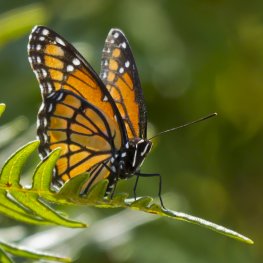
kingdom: Animalia
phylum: Arthropoda
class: Insecta
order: Lepidoptera
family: Nymphalidae
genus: Limenitis
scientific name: Limenitis archippus
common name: Viceroy
